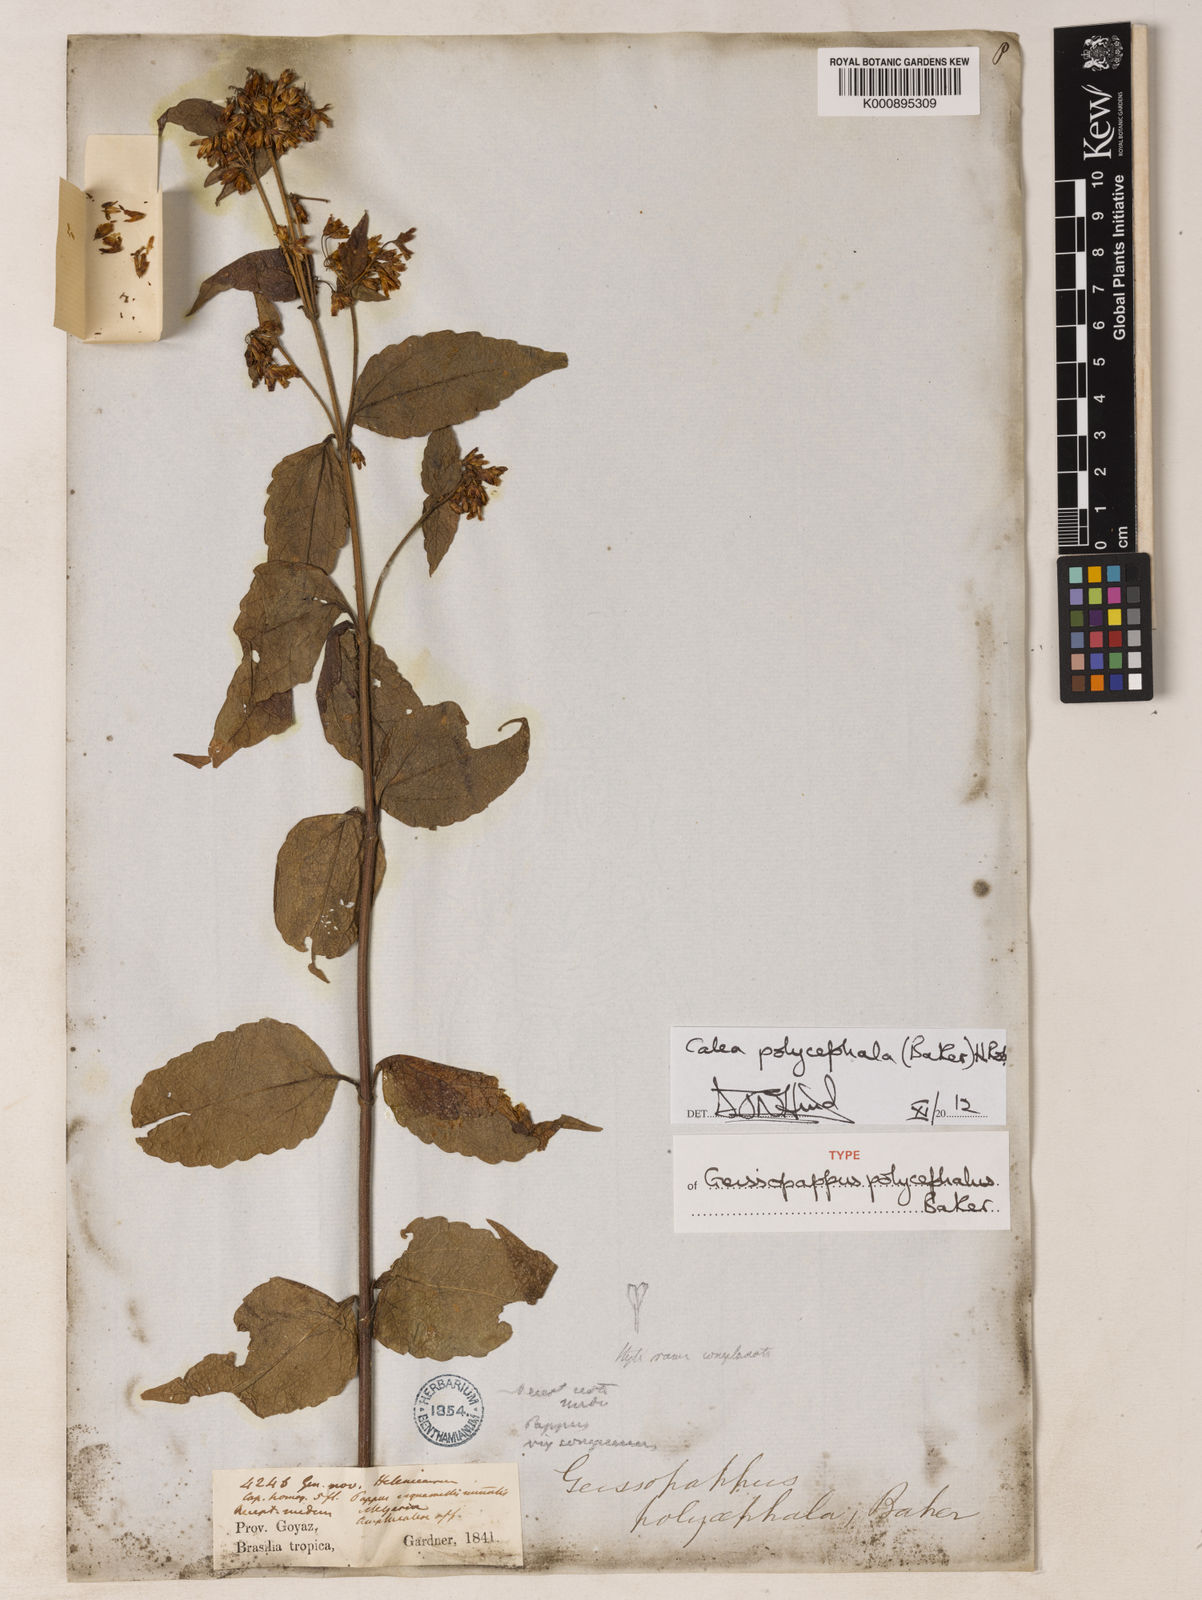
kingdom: Plantae
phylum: Tracheophyta
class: Magnoliopsida
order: Asterales
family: Asteraceae
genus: Calea
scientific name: Calea polycephala
